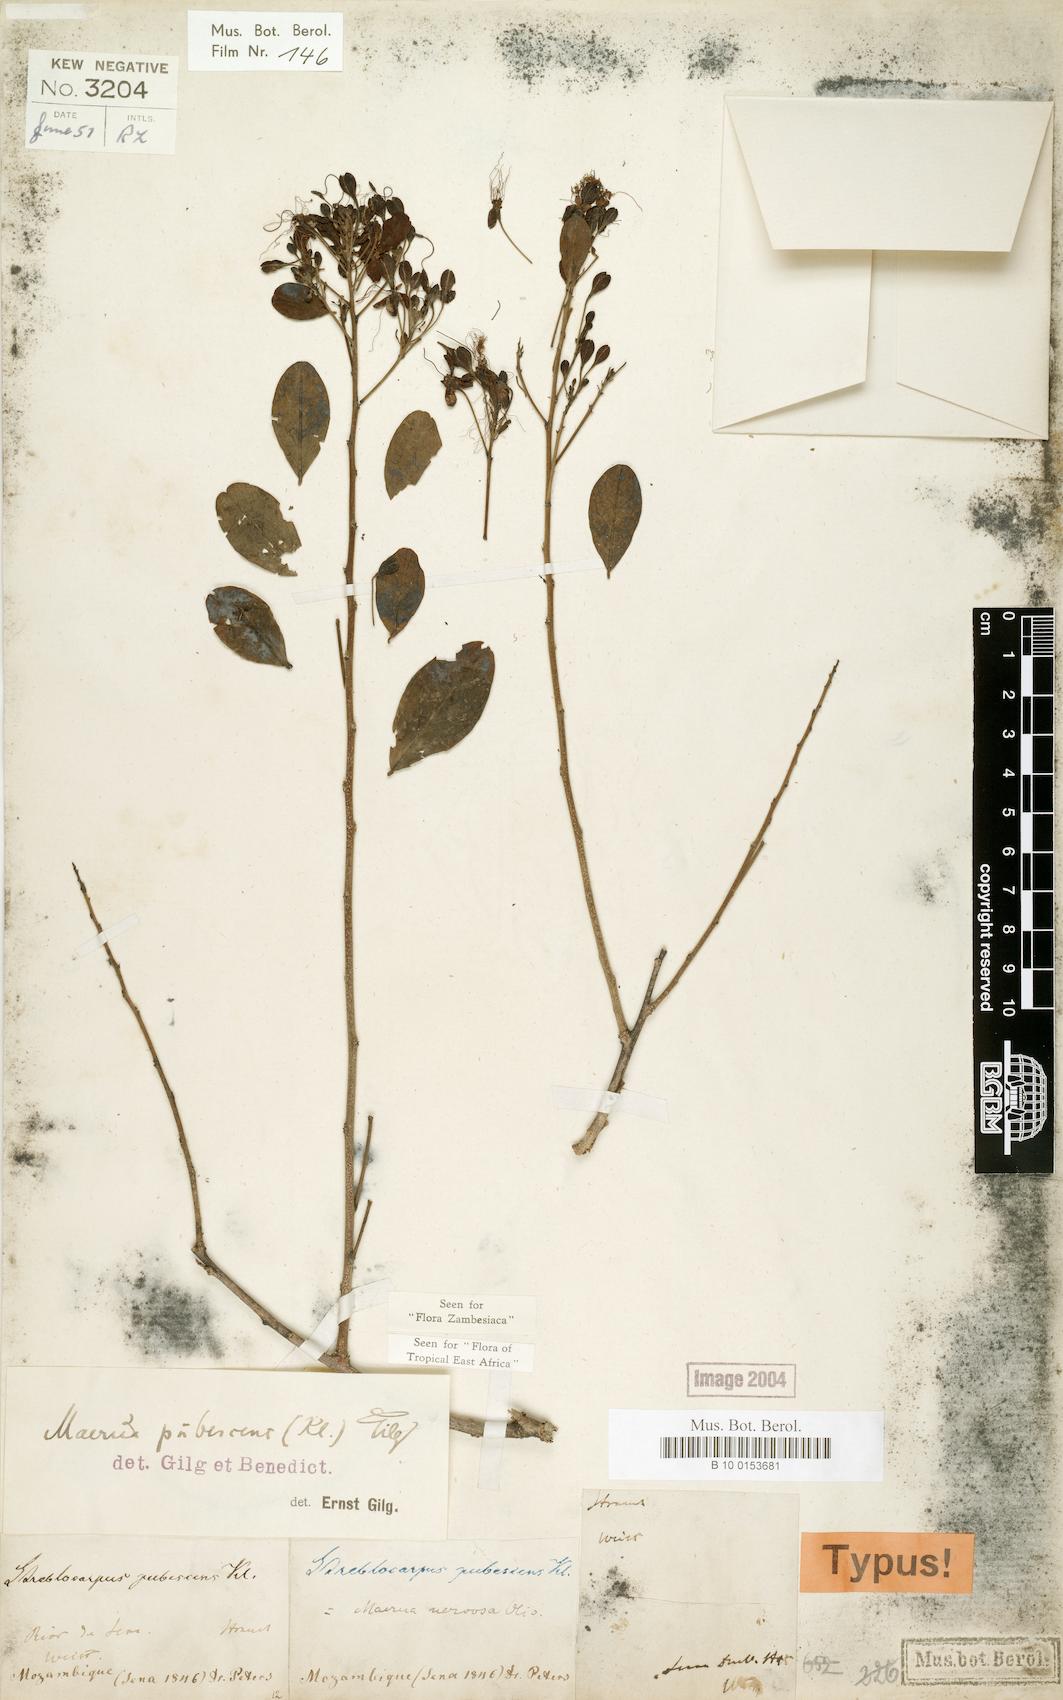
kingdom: Plantae
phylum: Tracheophyta
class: Magnoliopsida
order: Brassicales
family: Capparaceae
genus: Maerua
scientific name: Maerua triphylla
